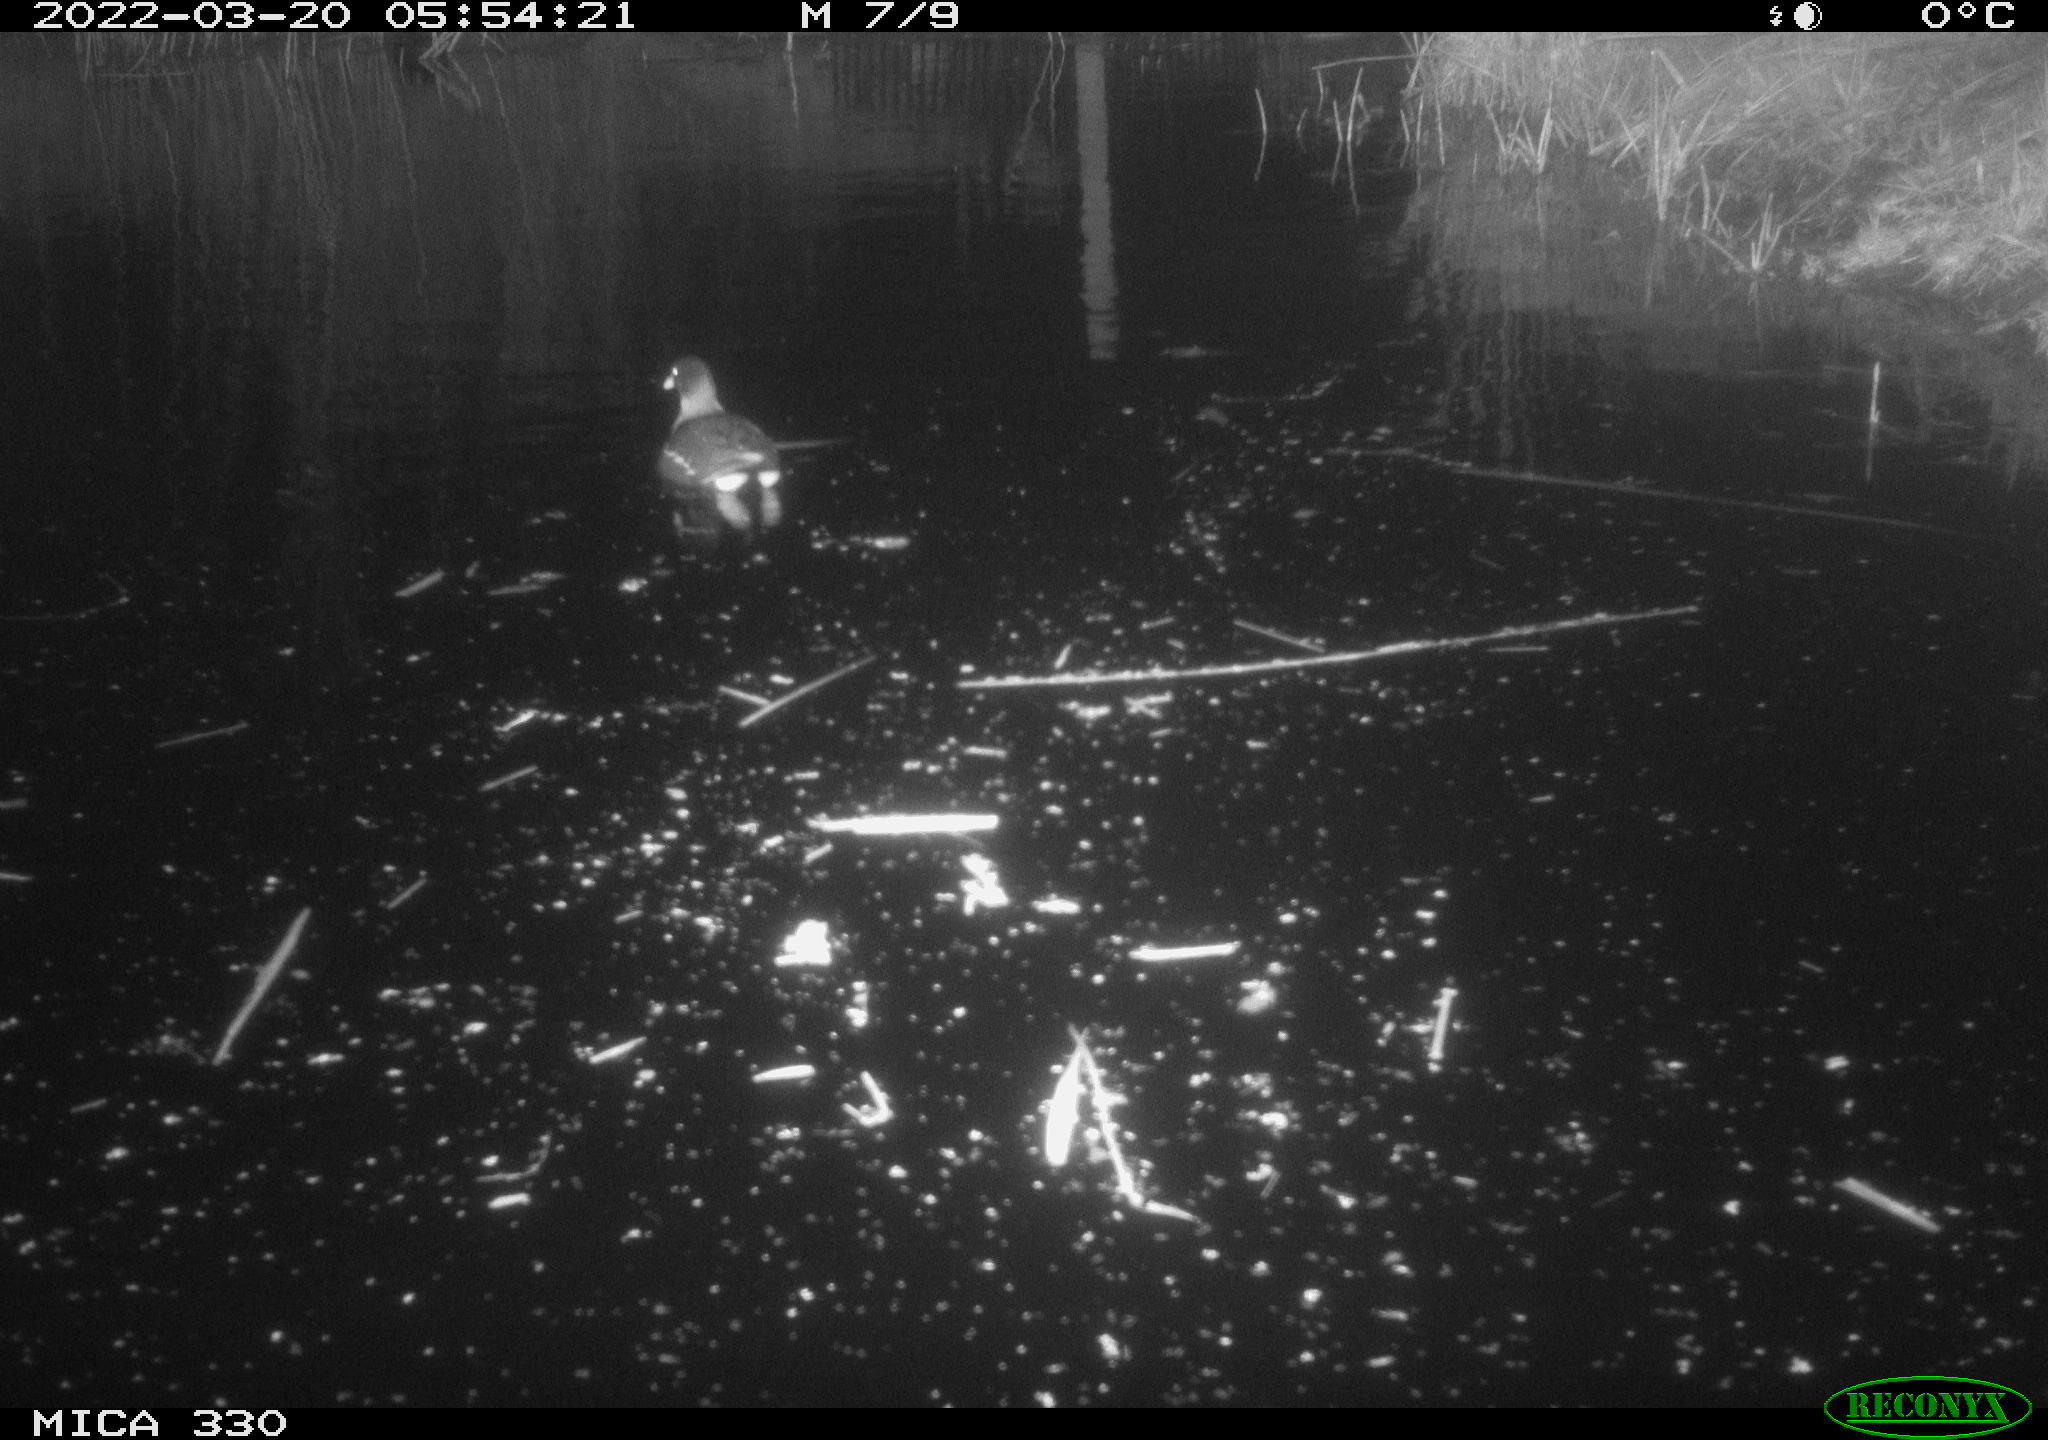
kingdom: Animalia
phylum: Chordata
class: Aves
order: Gruiformes
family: Rallidae
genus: Gallinula
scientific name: Gallinula chloropus
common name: Common moorhen
